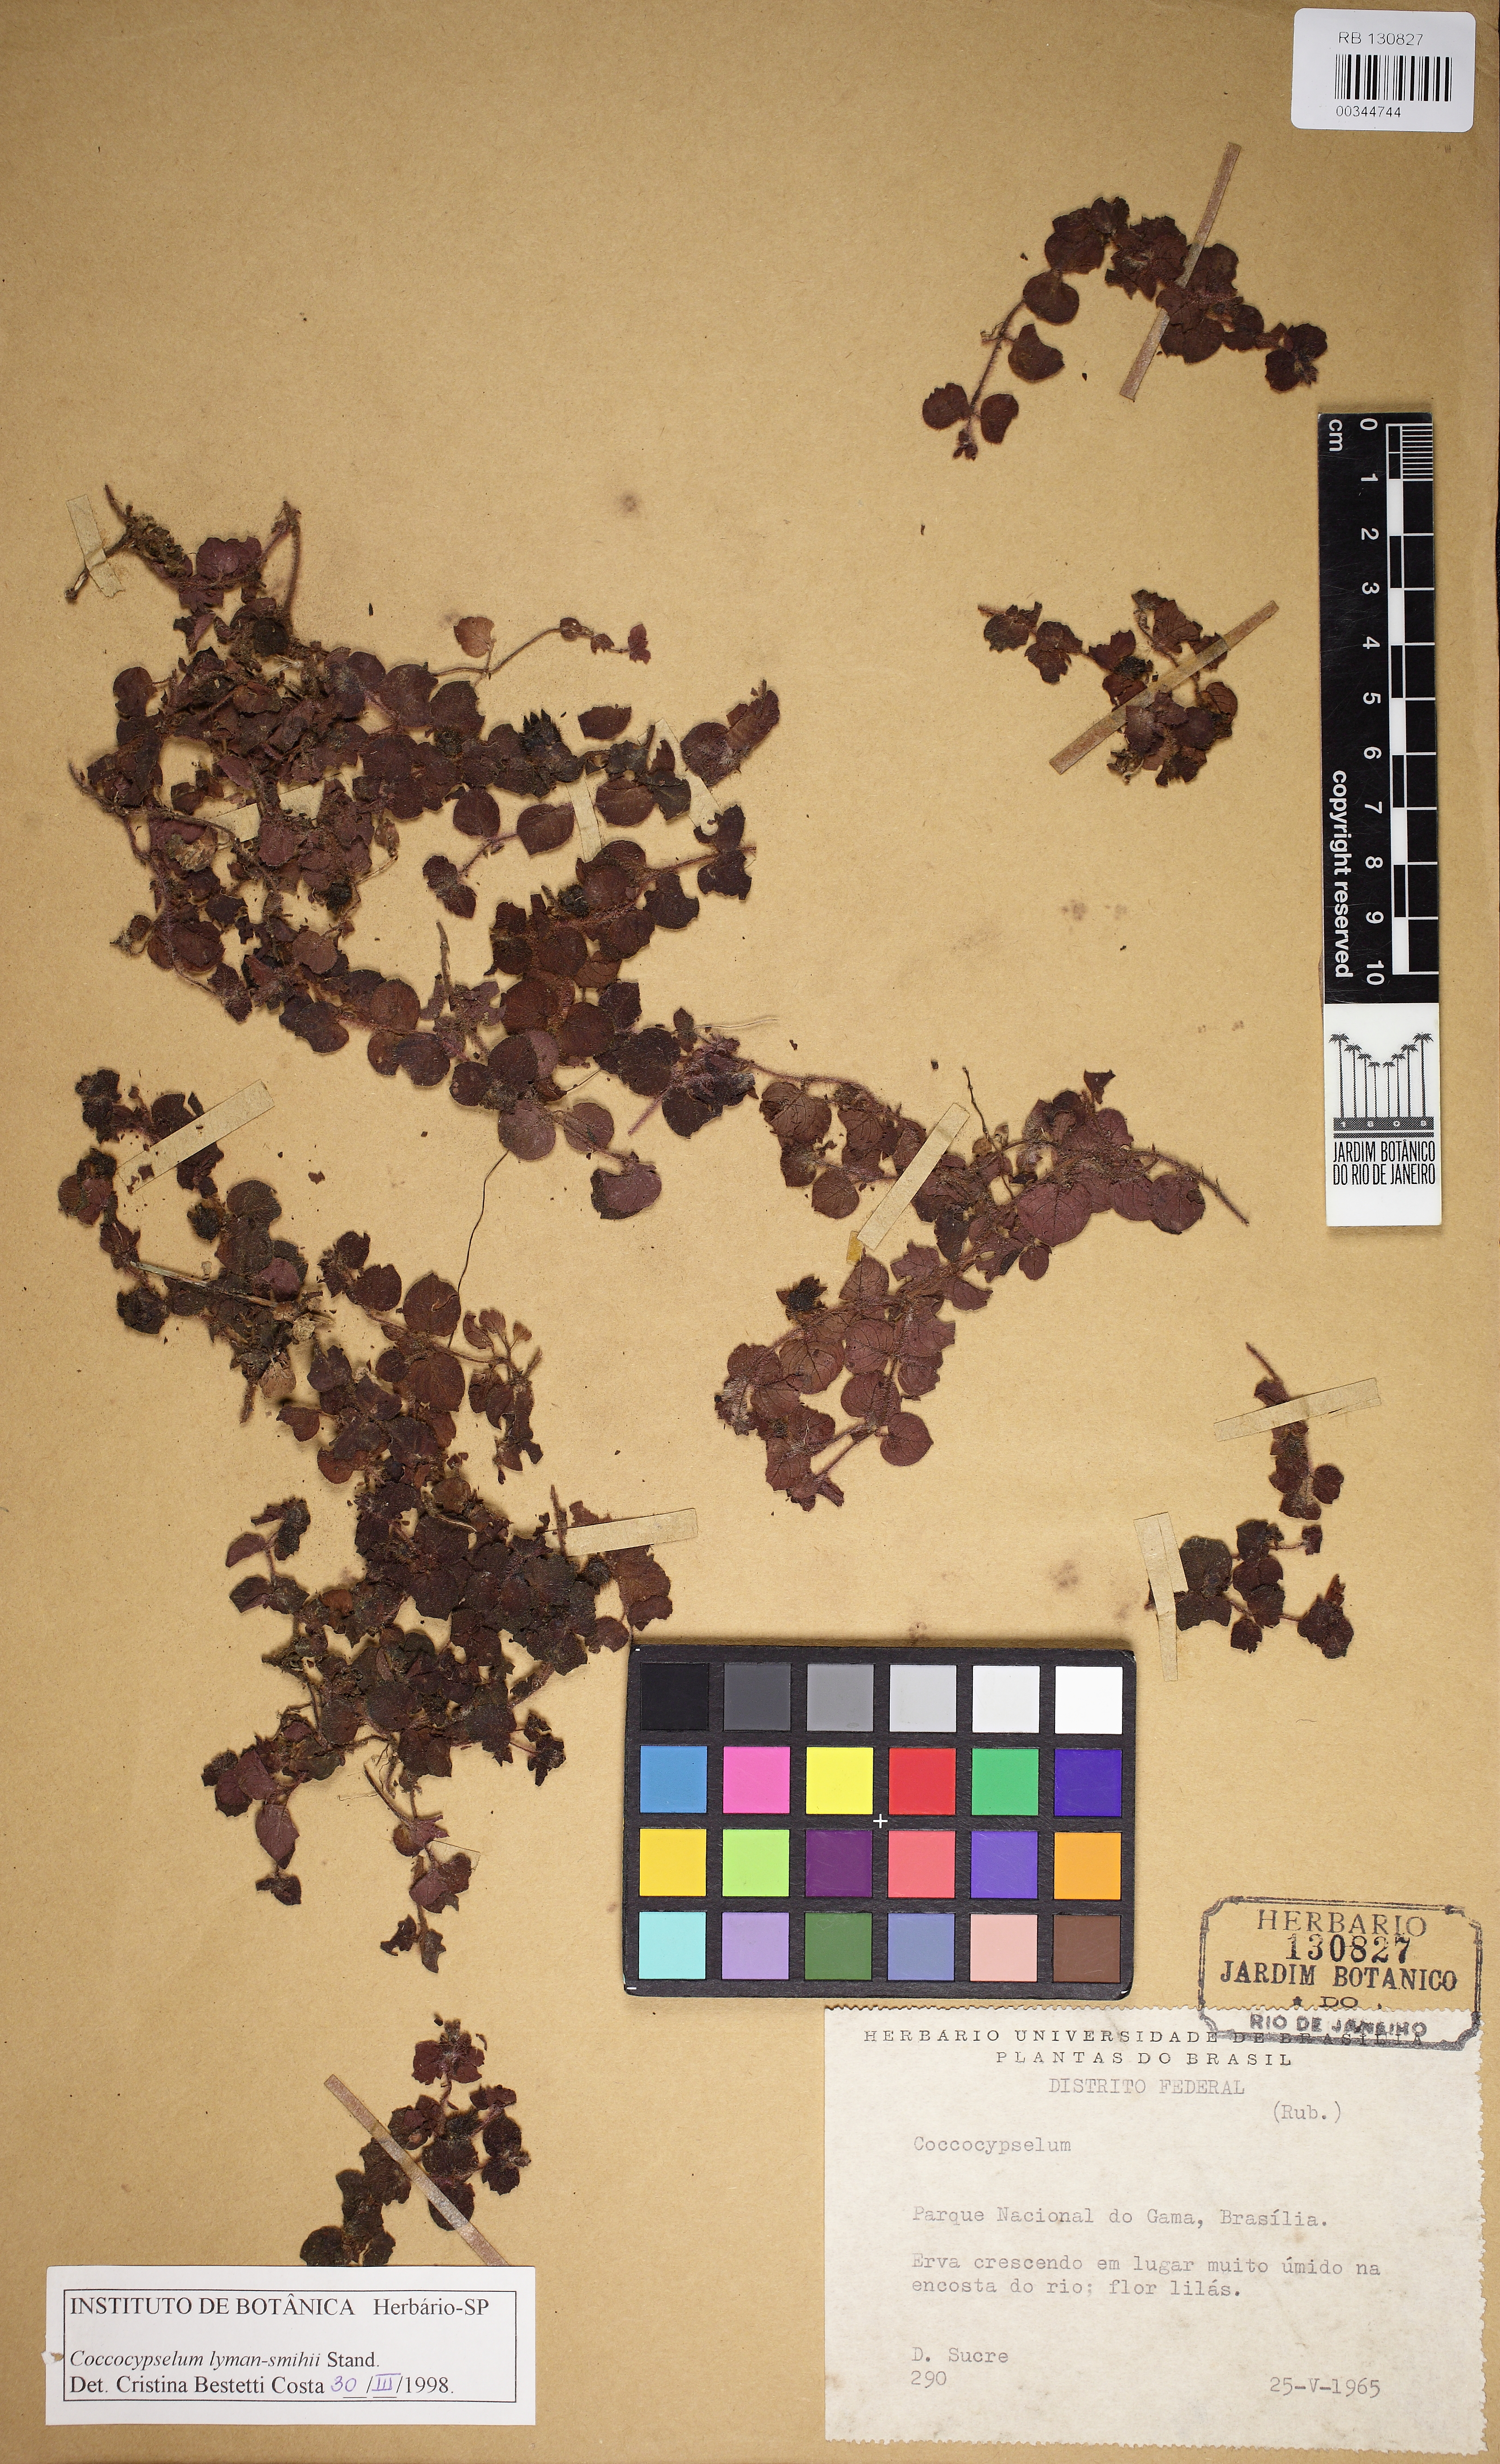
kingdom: Plantae
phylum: Tracheophyta
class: Magnoliopsida
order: Gentianales
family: Rubiaceae
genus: Coccocypselum
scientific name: Coccocypselum lymansmithii
